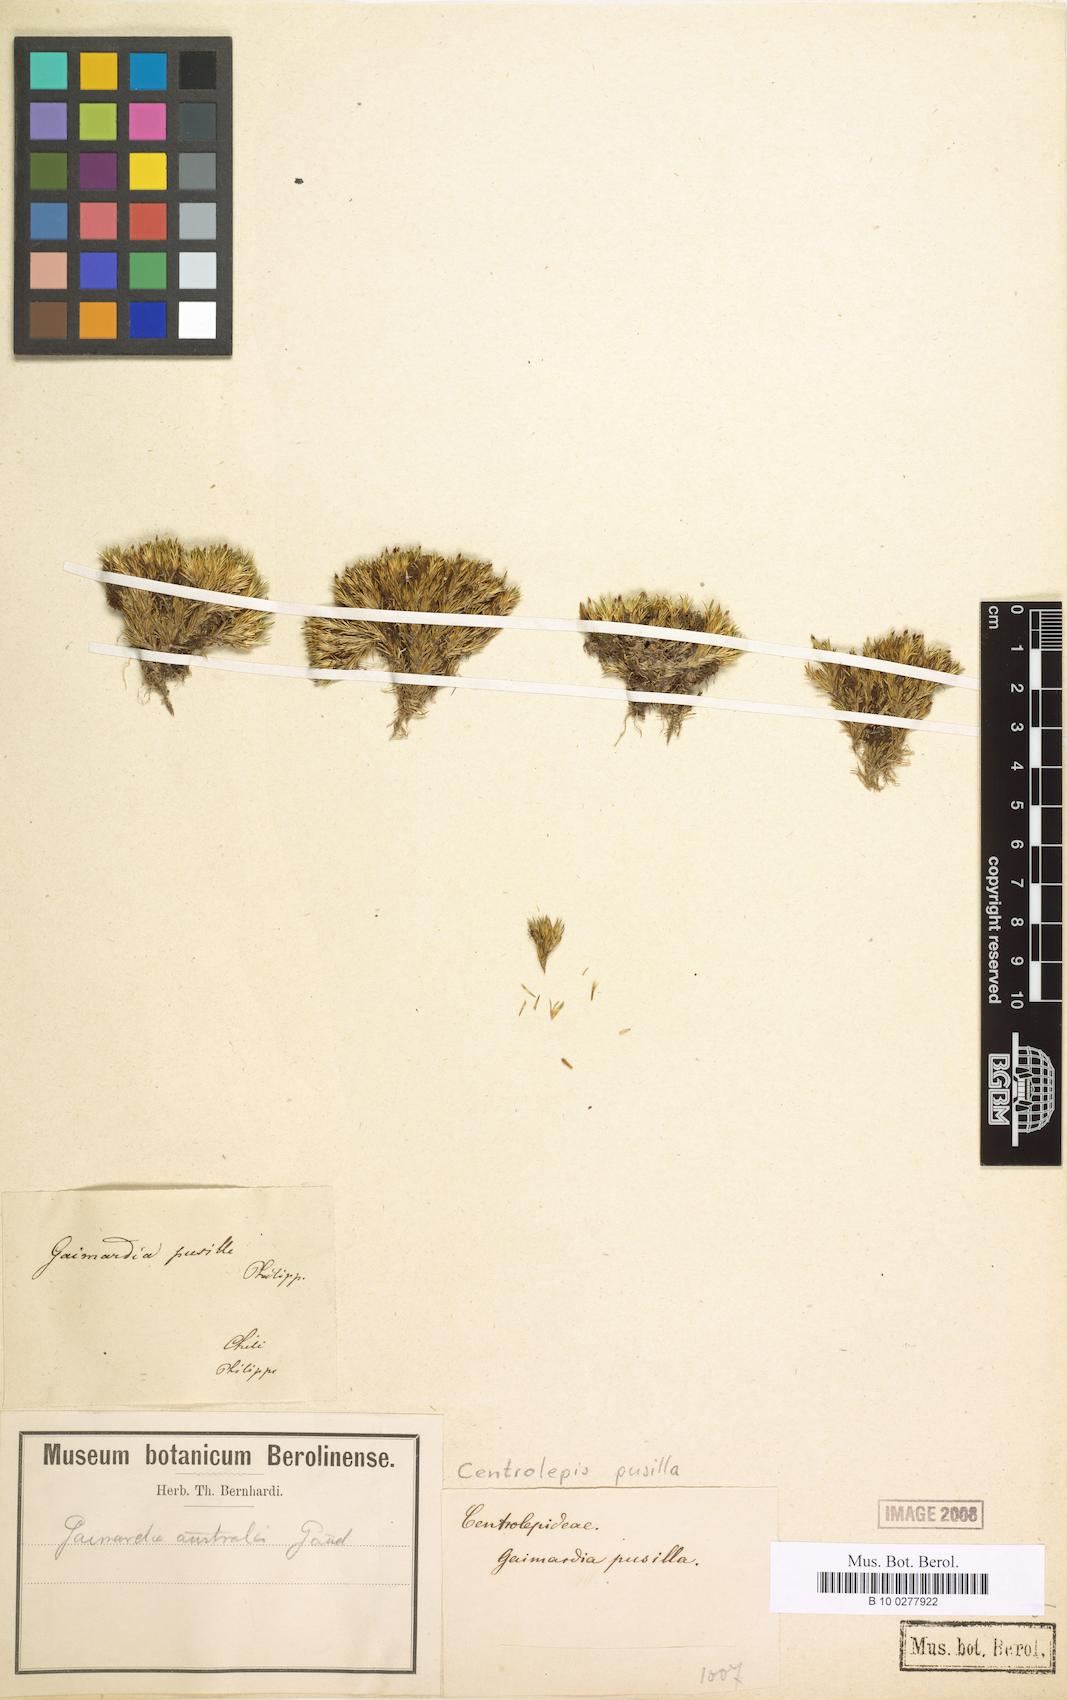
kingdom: Plantae
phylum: Tracheophyta
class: Liliopsida
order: Poales
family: Restionaceae
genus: Centrolepis
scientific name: Centrolepis banksii
